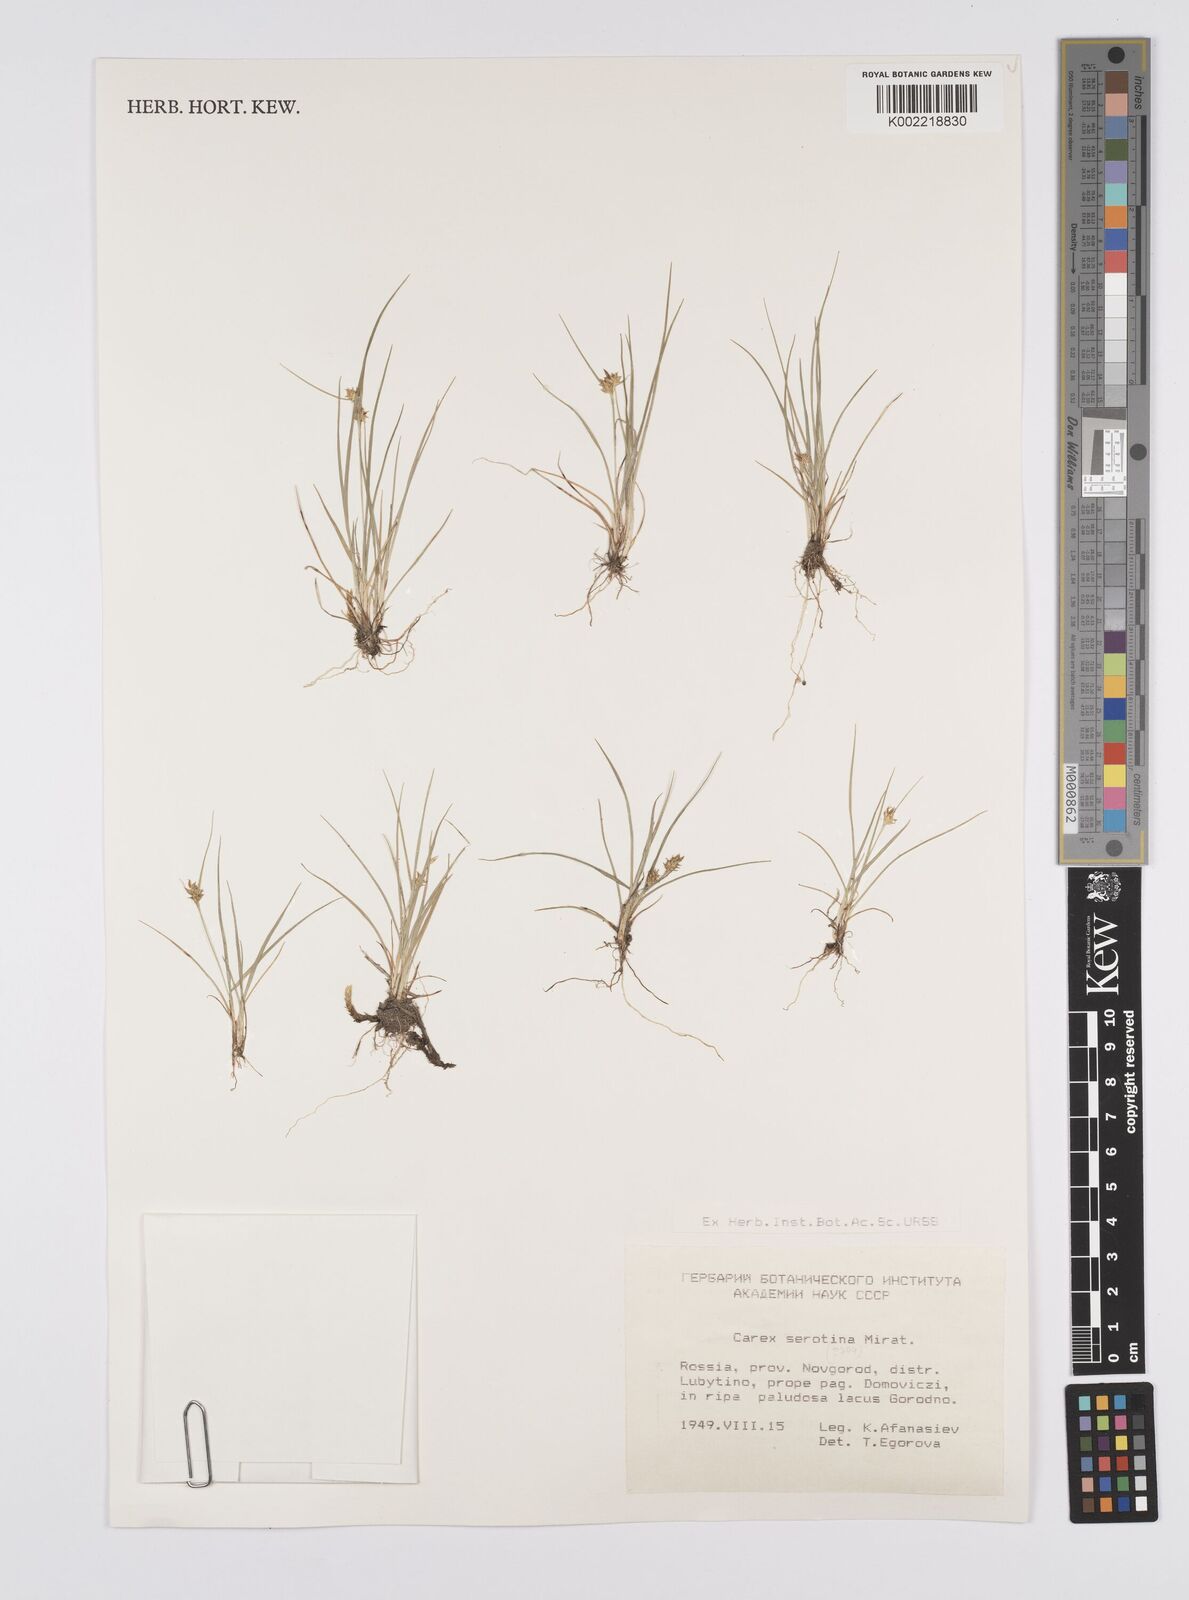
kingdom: Plantae
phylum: Tracheophyta
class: Liliopsida
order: Poales
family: Cyperaceae
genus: Carex
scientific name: Carex pilulifera
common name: Pill sedge
